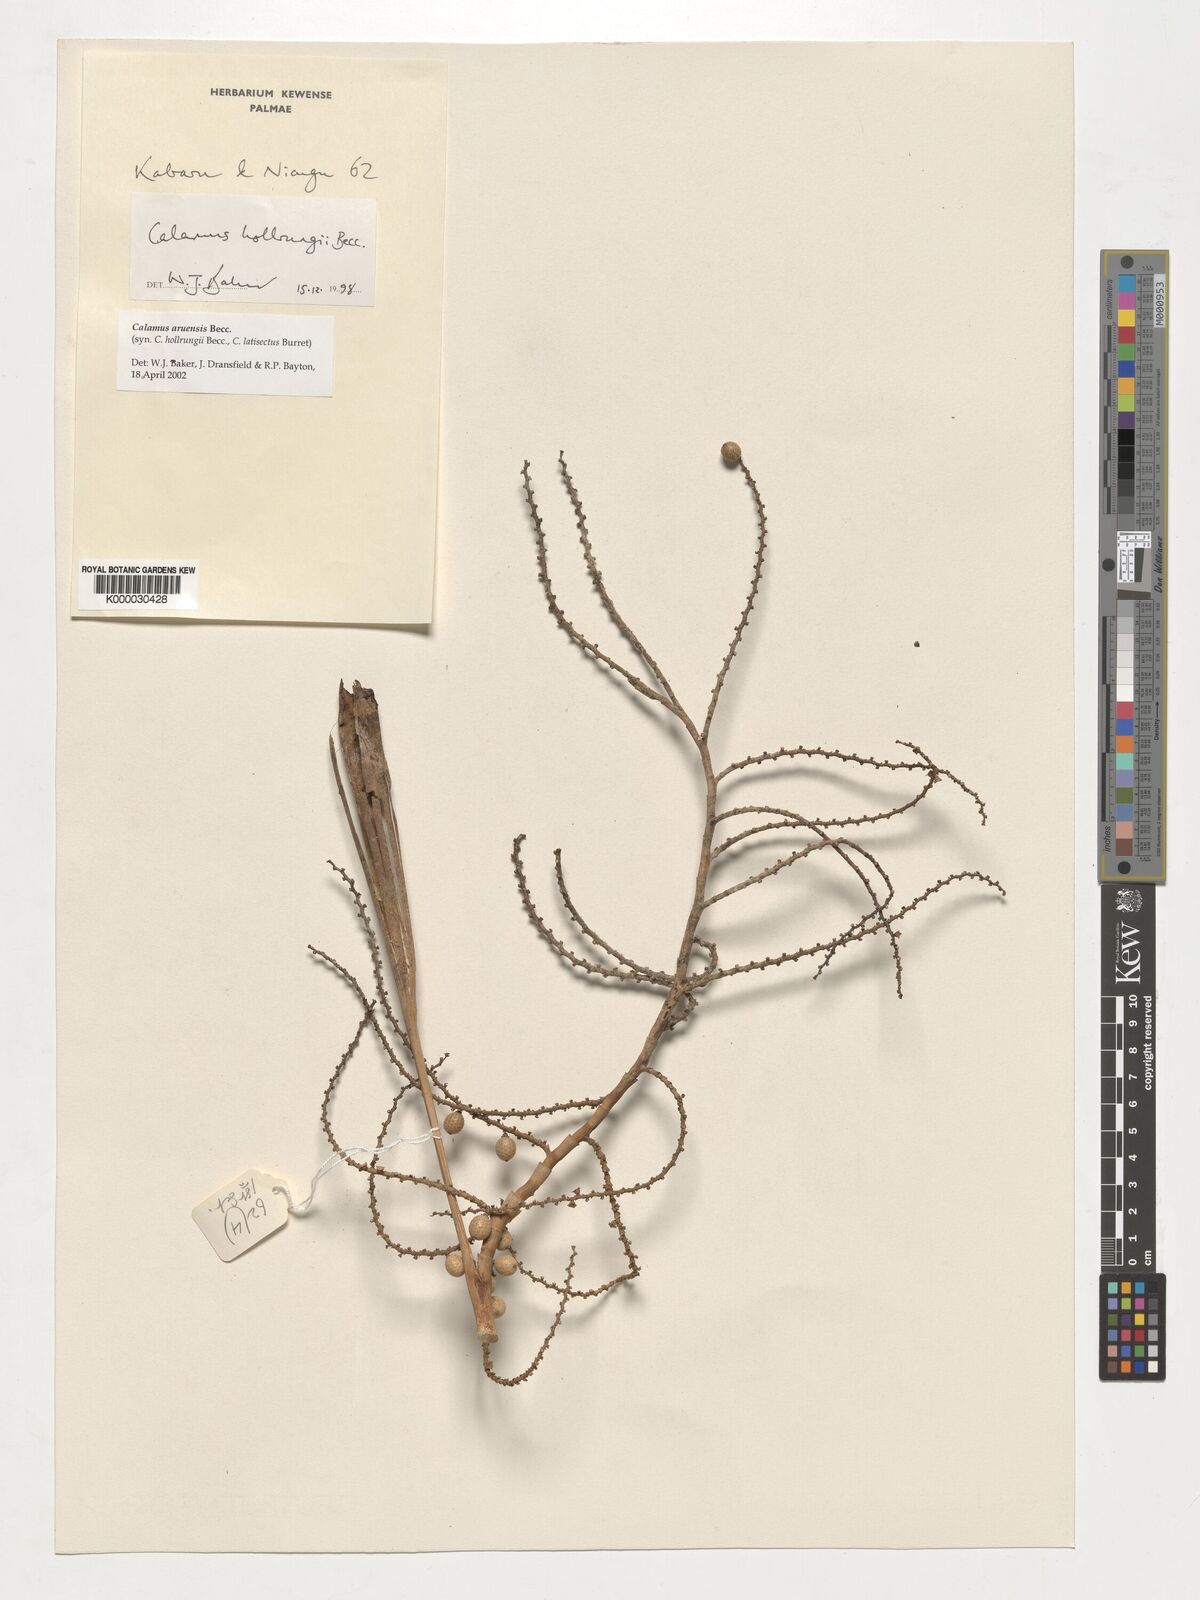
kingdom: Plantae
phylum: Tracheophyta
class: Liliopsida
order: Arecales
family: Arecaceae
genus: Calamus
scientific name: Calamus aruensis
